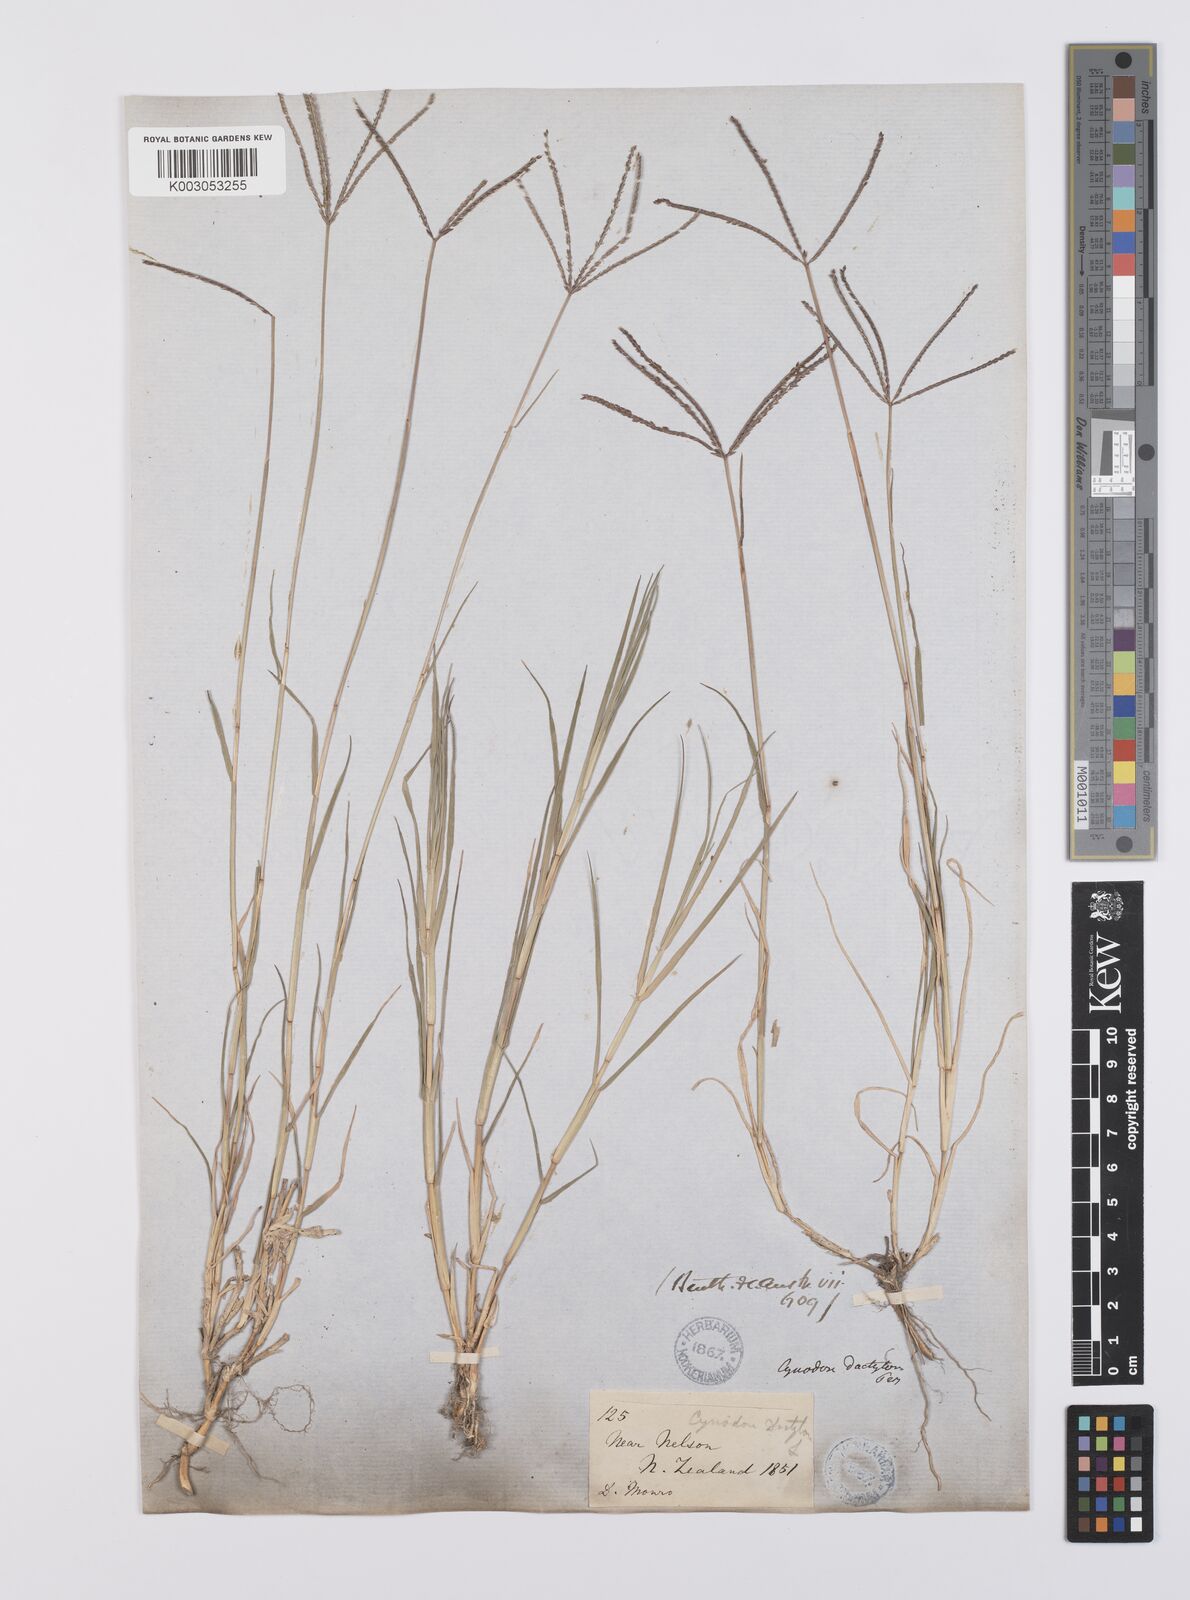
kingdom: Plantae
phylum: Tracheophyta
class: Liliopsida
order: Poales
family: Poaceae
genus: Cynodon
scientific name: Cynodon dactylon
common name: Bermuda grass
